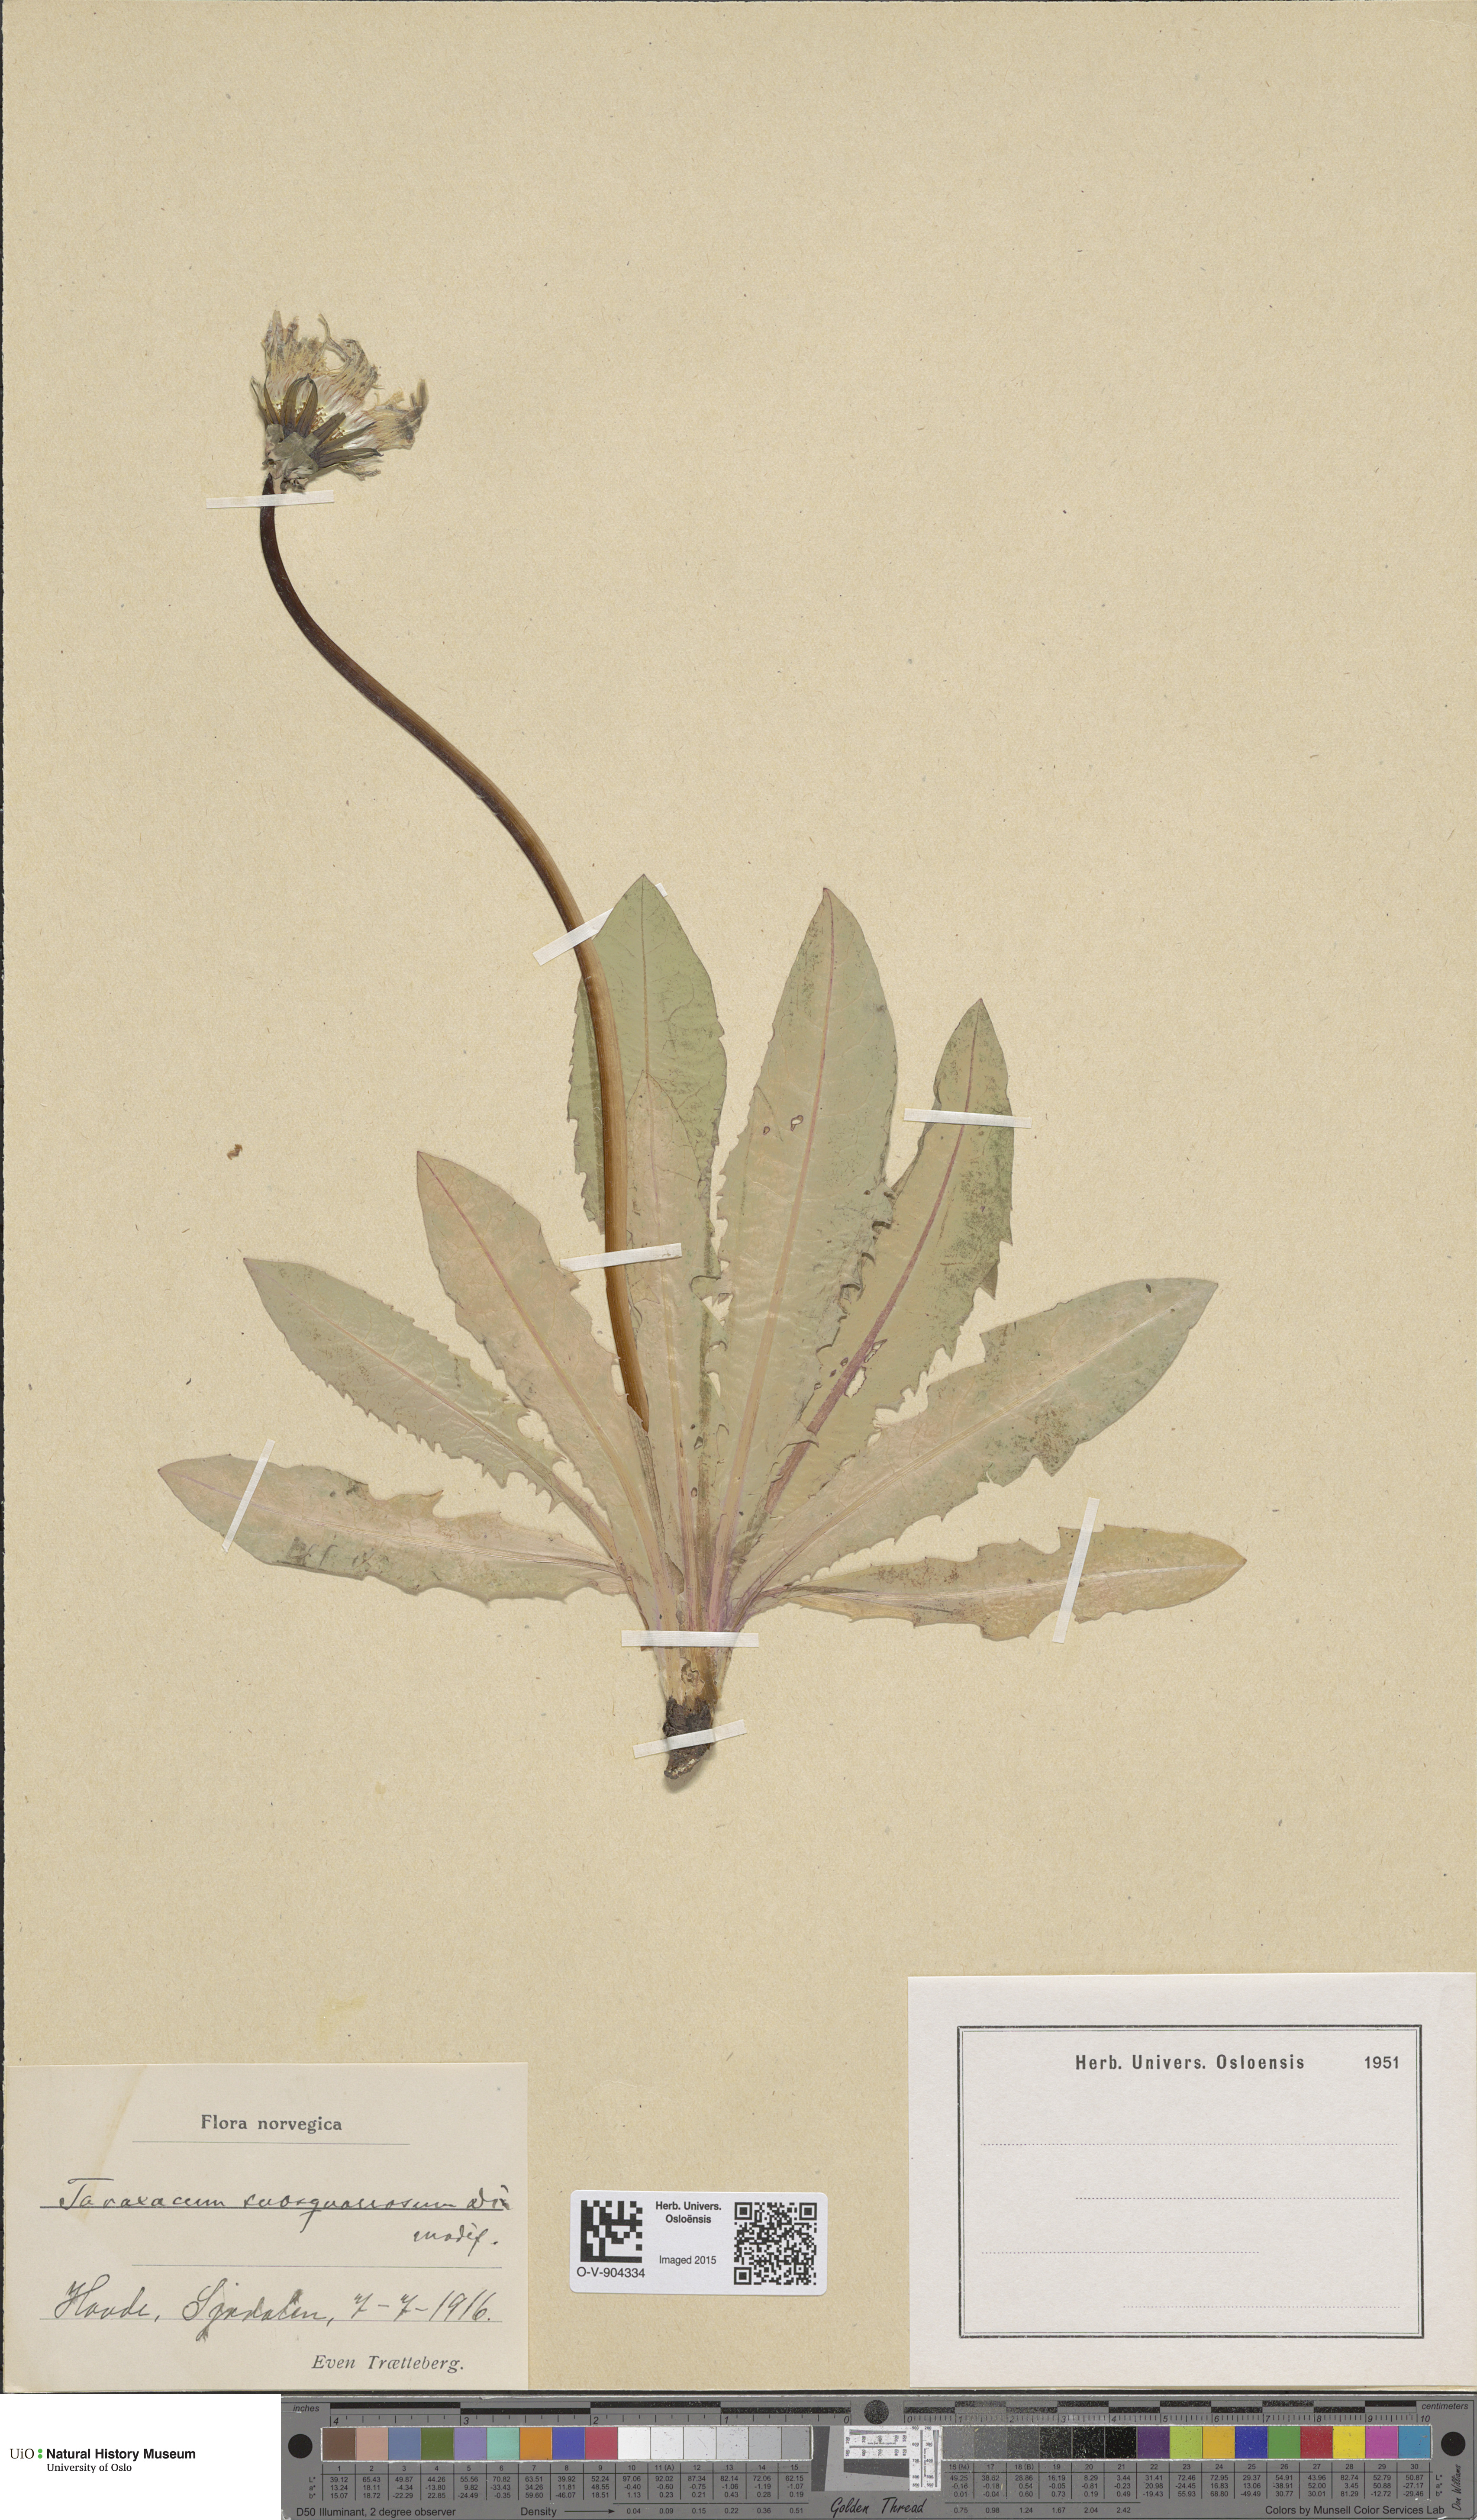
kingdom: Plantae
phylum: Tracheophyta
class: Magnoliopsida
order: Asterales
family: Asteraceae
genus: Taraxacum
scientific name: Taraxacum
